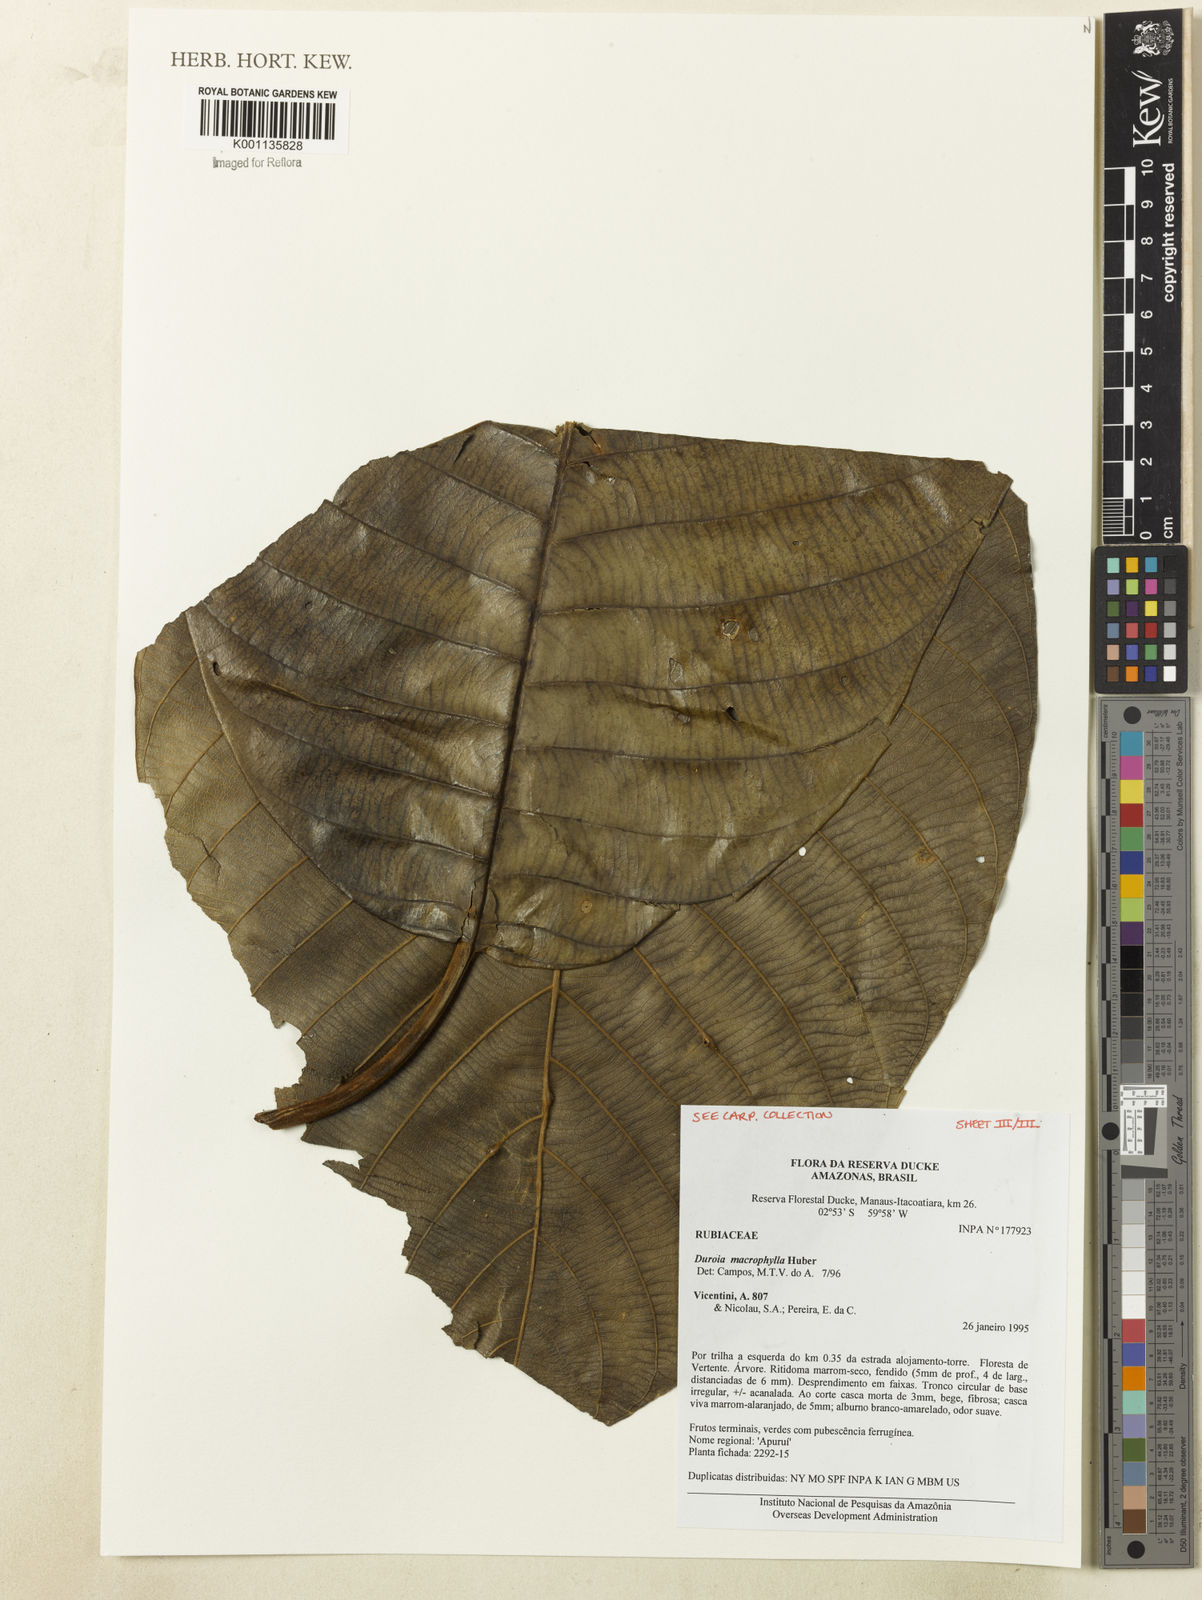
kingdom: Plantae
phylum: Tracheophyta
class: Magnoliopsida
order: Gentianales
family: Rubiaceae
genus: Duroia
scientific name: Duroia macrophylla
